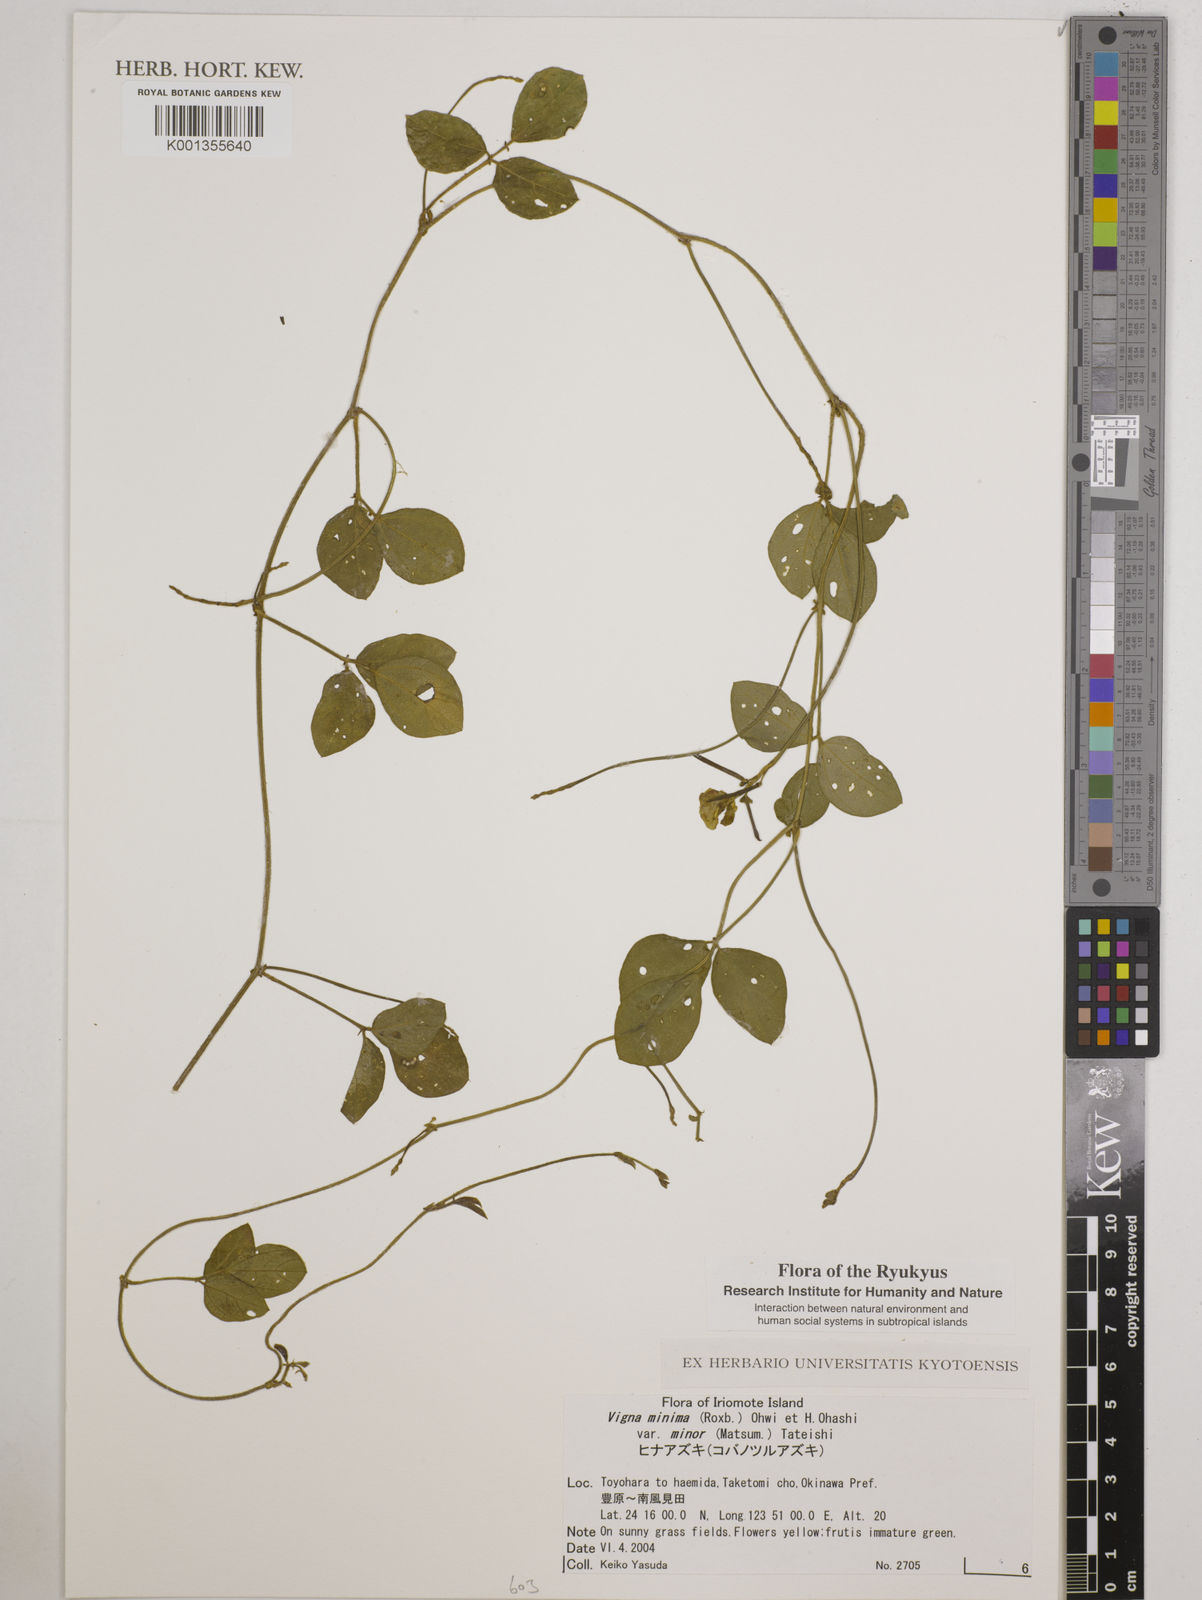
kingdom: Plantae
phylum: Tracheophyta
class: Magnoliopsida
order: Fabales
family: Fabaceae
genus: Vigna
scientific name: Vigna minima
